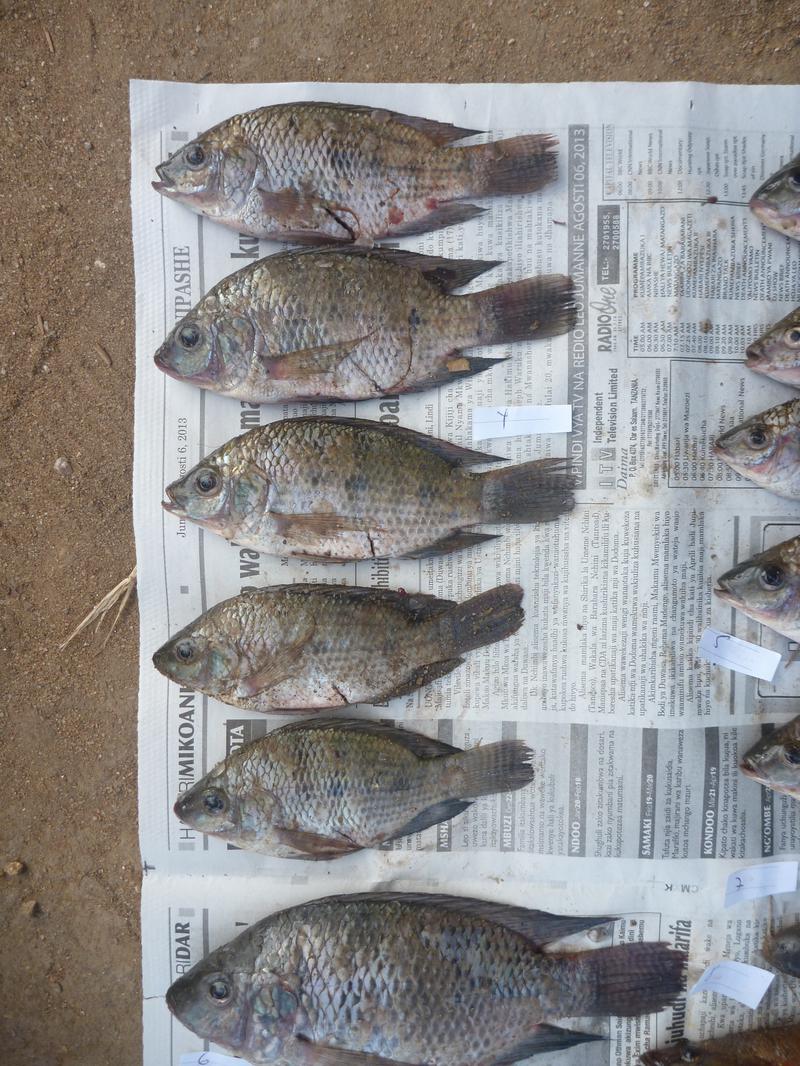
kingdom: Animalia
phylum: Chordata
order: Perciformes
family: Cichlidae
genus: Oreochromis
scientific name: Oreochromis urolepis
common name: Wami tilapia
